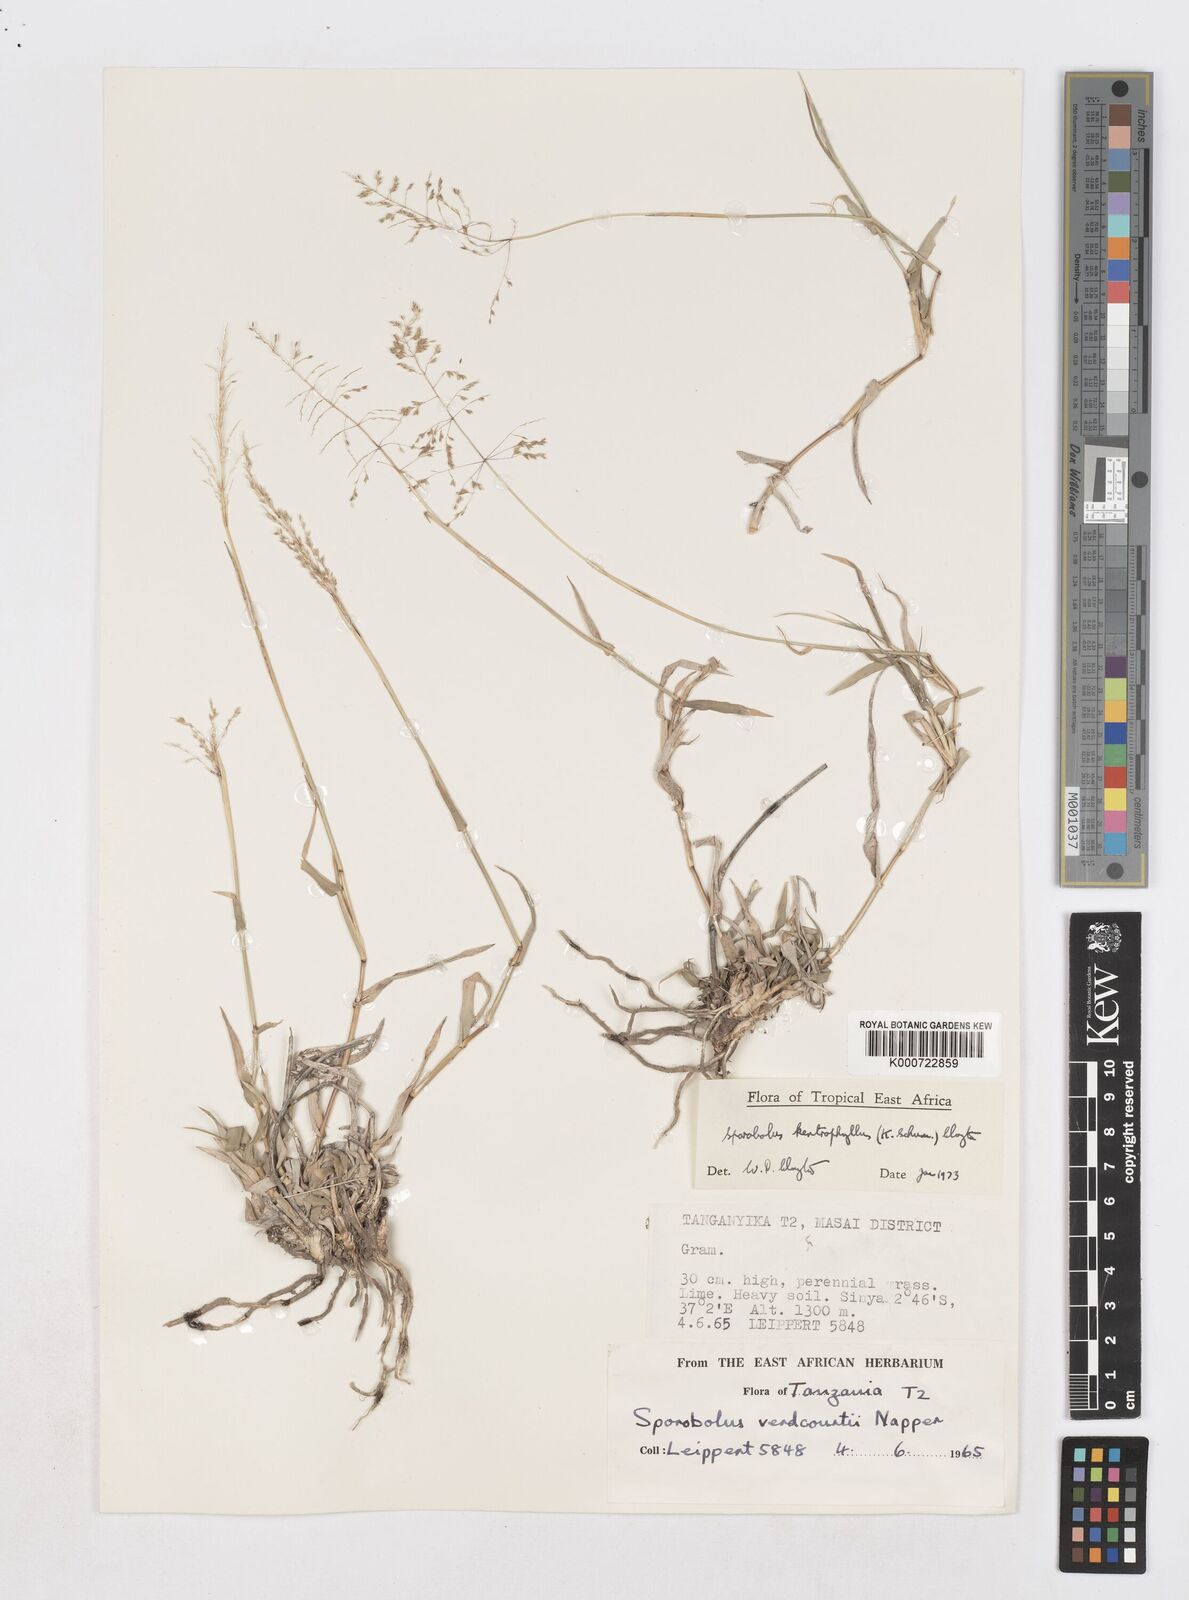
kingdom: Plantae
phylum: Tracheophyta
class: Liliopsida
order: Poales
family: Poaceae
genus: Sporobolus
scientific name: Sporobolus ioclados
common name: Pan dropseed
